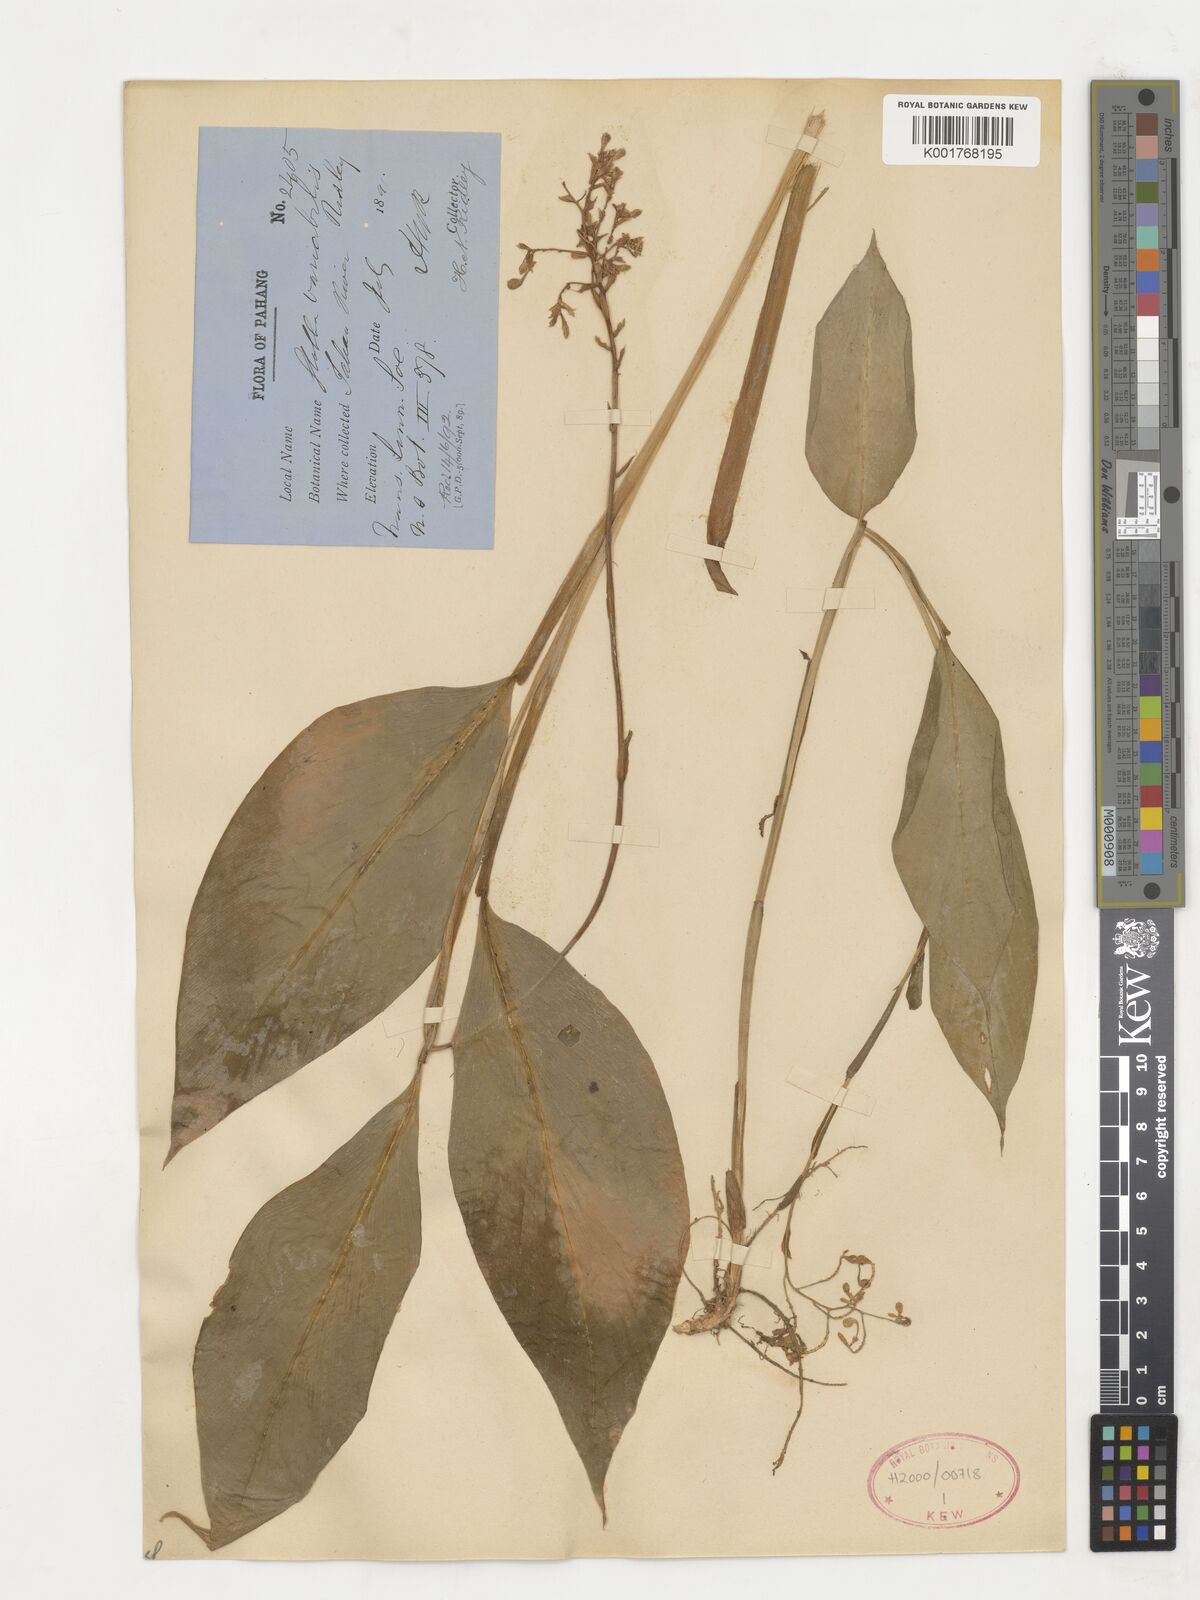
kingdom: Plantae
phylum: Tracheophyta
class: Liliopsida
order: Zingiberales
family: Zingiberaceae
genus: Globba
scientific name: Globba variabilis
